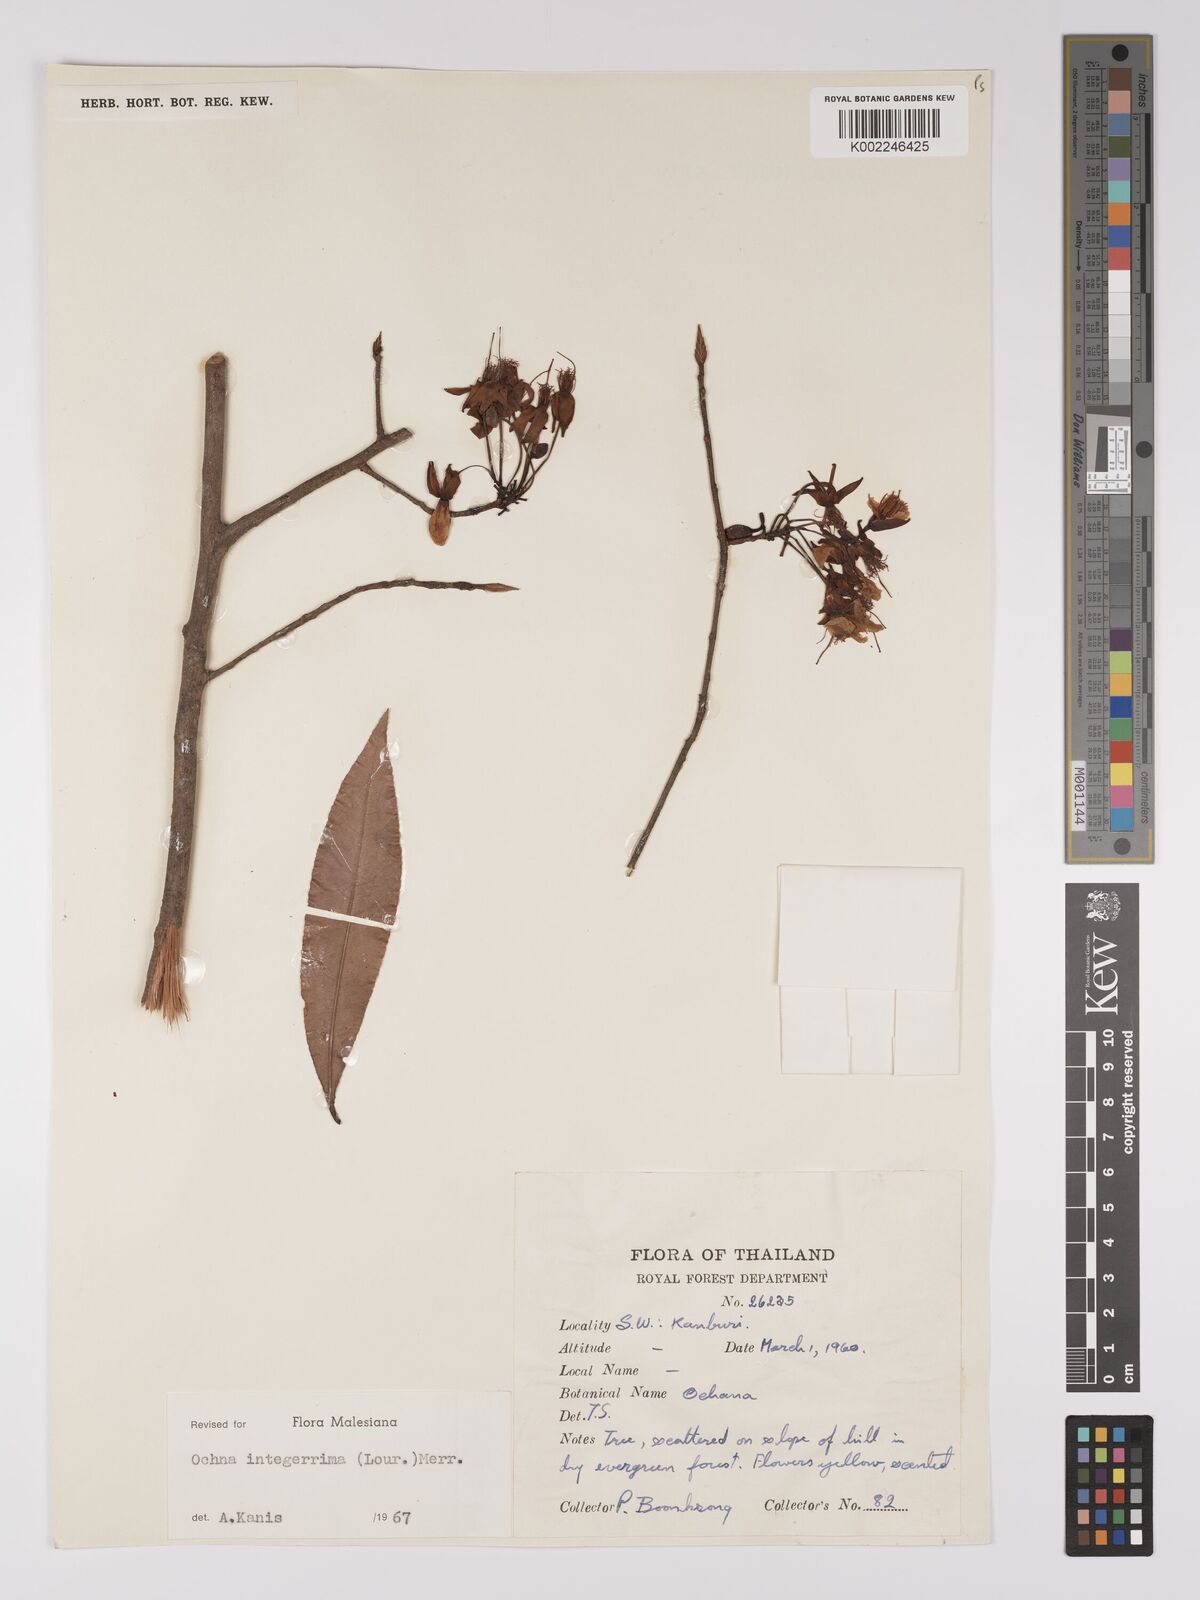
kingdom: Plantae
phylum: Tracheophyta
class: Magnoliopsida
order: Malpighiales
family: Ochnaceae
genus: Ochna
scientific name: Ochna integerrima
